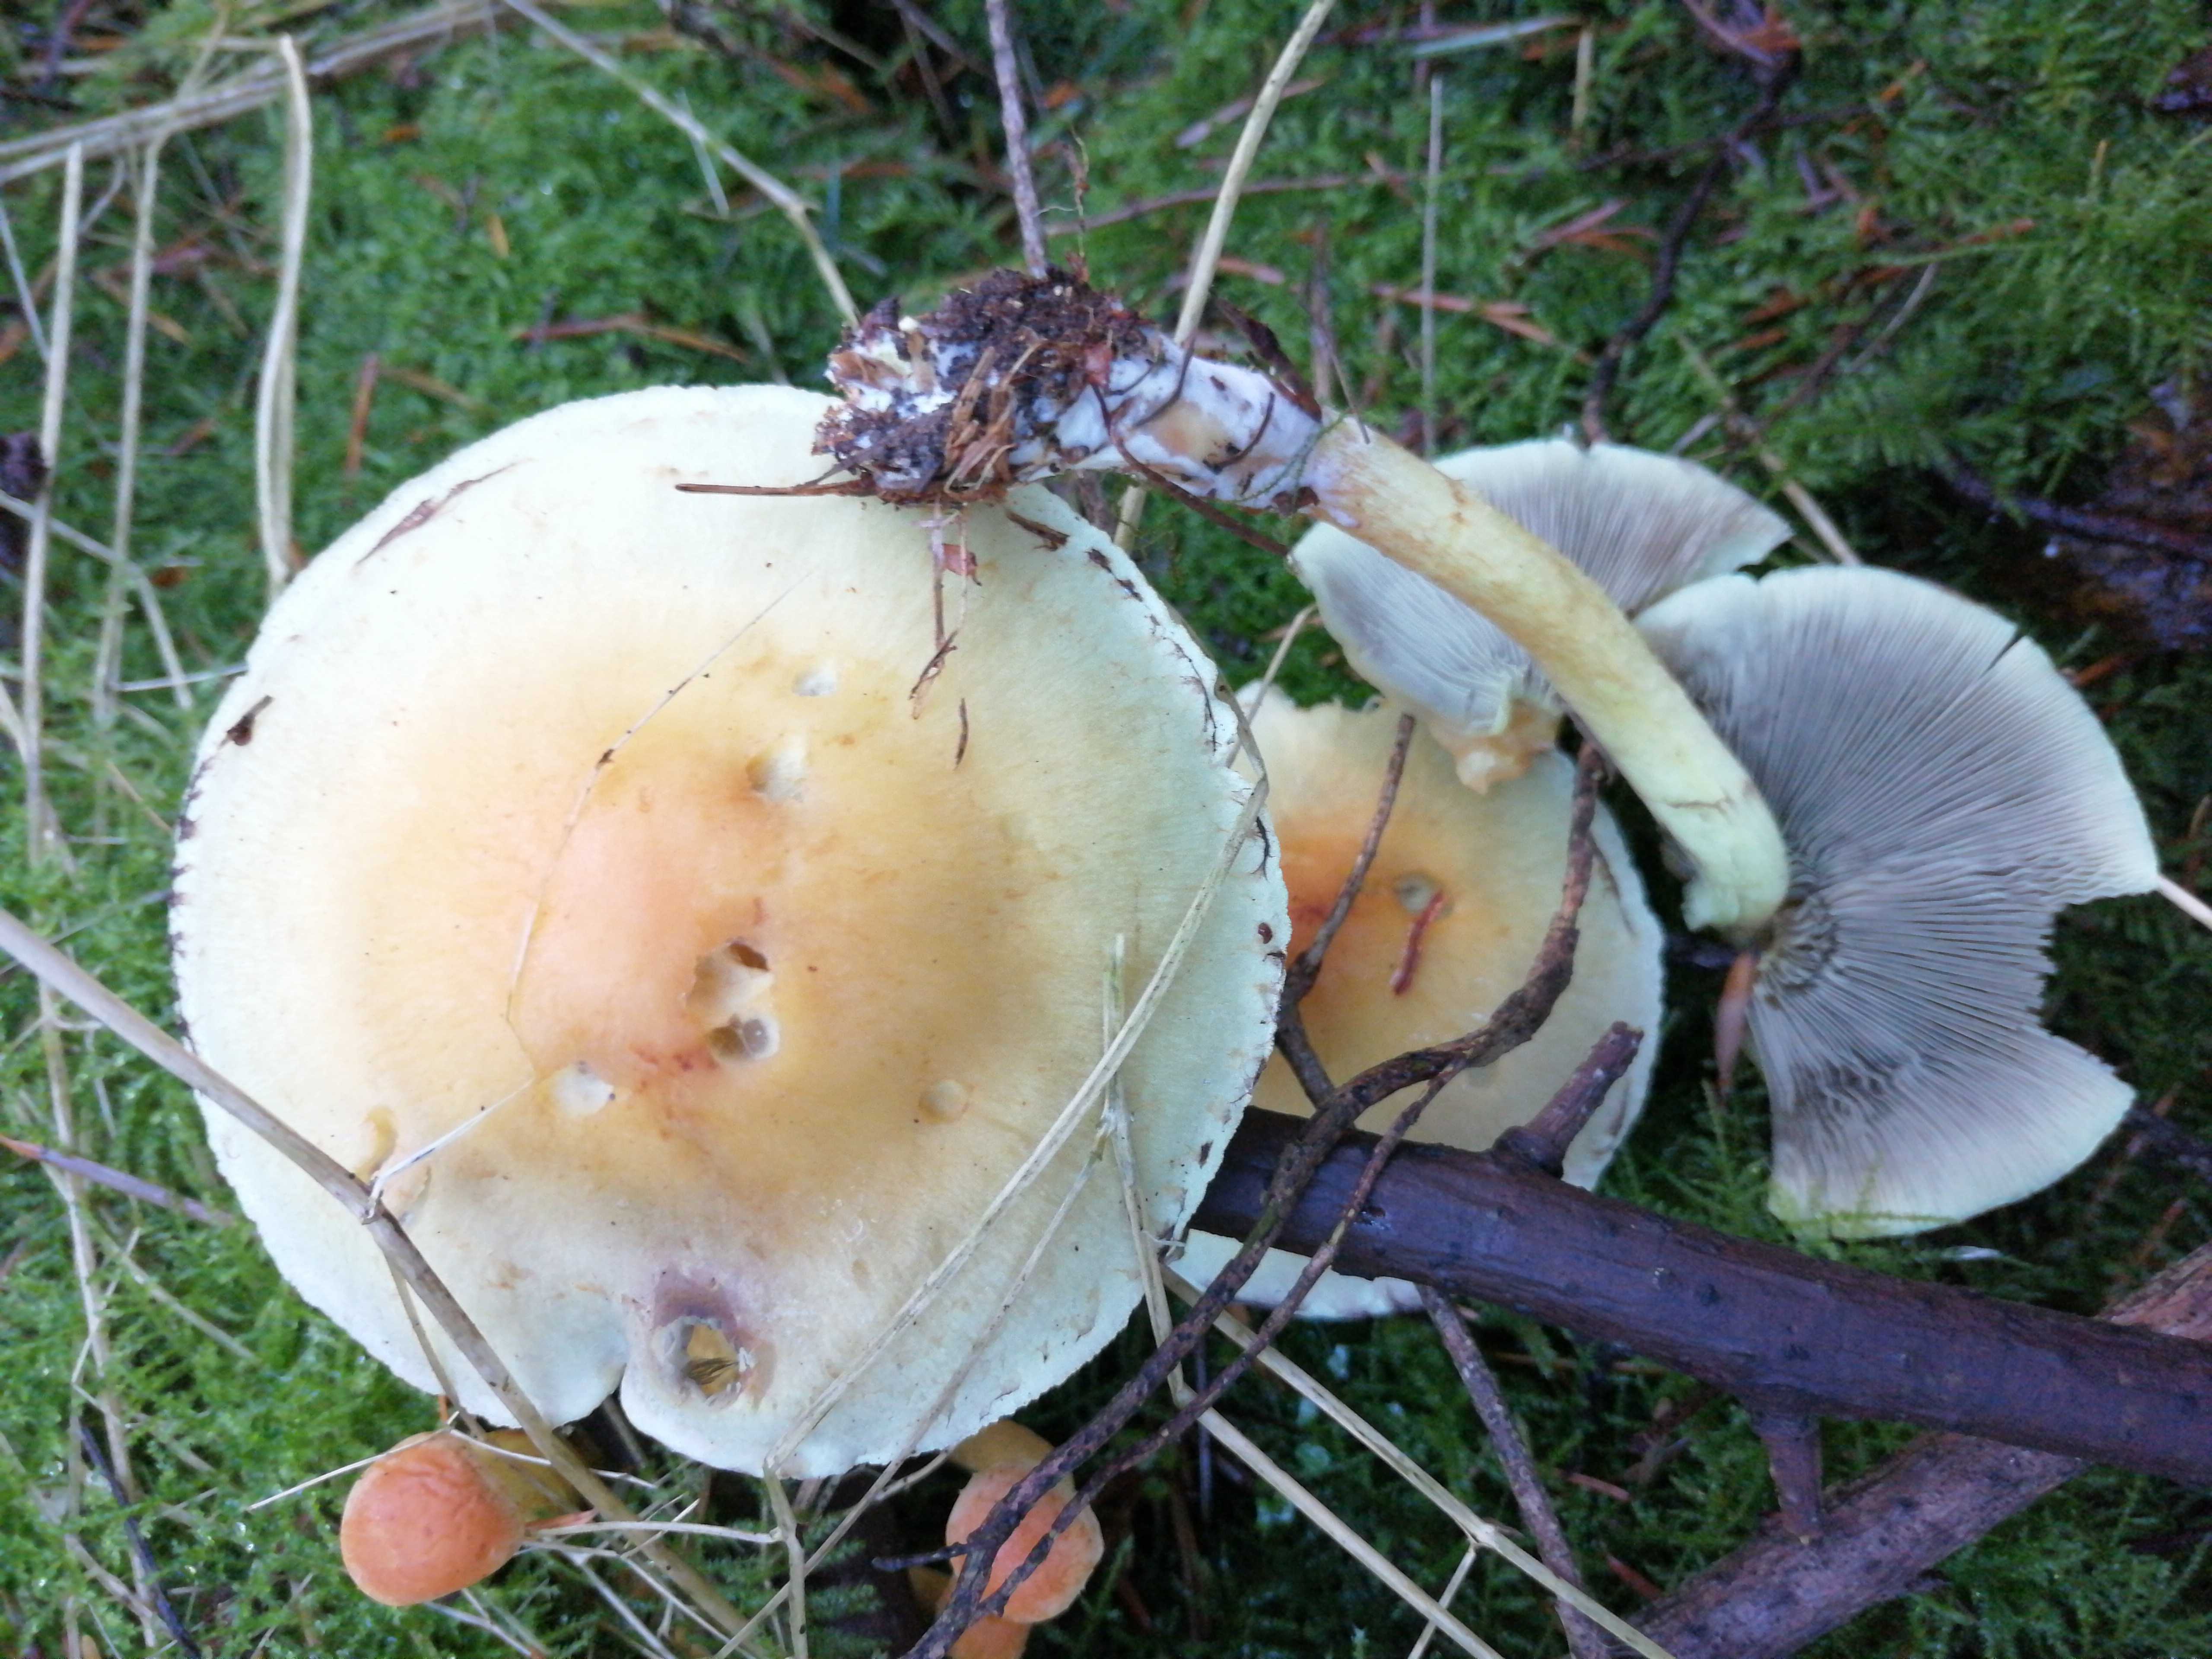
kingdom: Fungi
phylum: Basidiomycota
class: Agaricomycetes
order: Agaricales
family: Strophariaceae
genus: Hypholoma
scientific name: Hypholoma fasciculare
